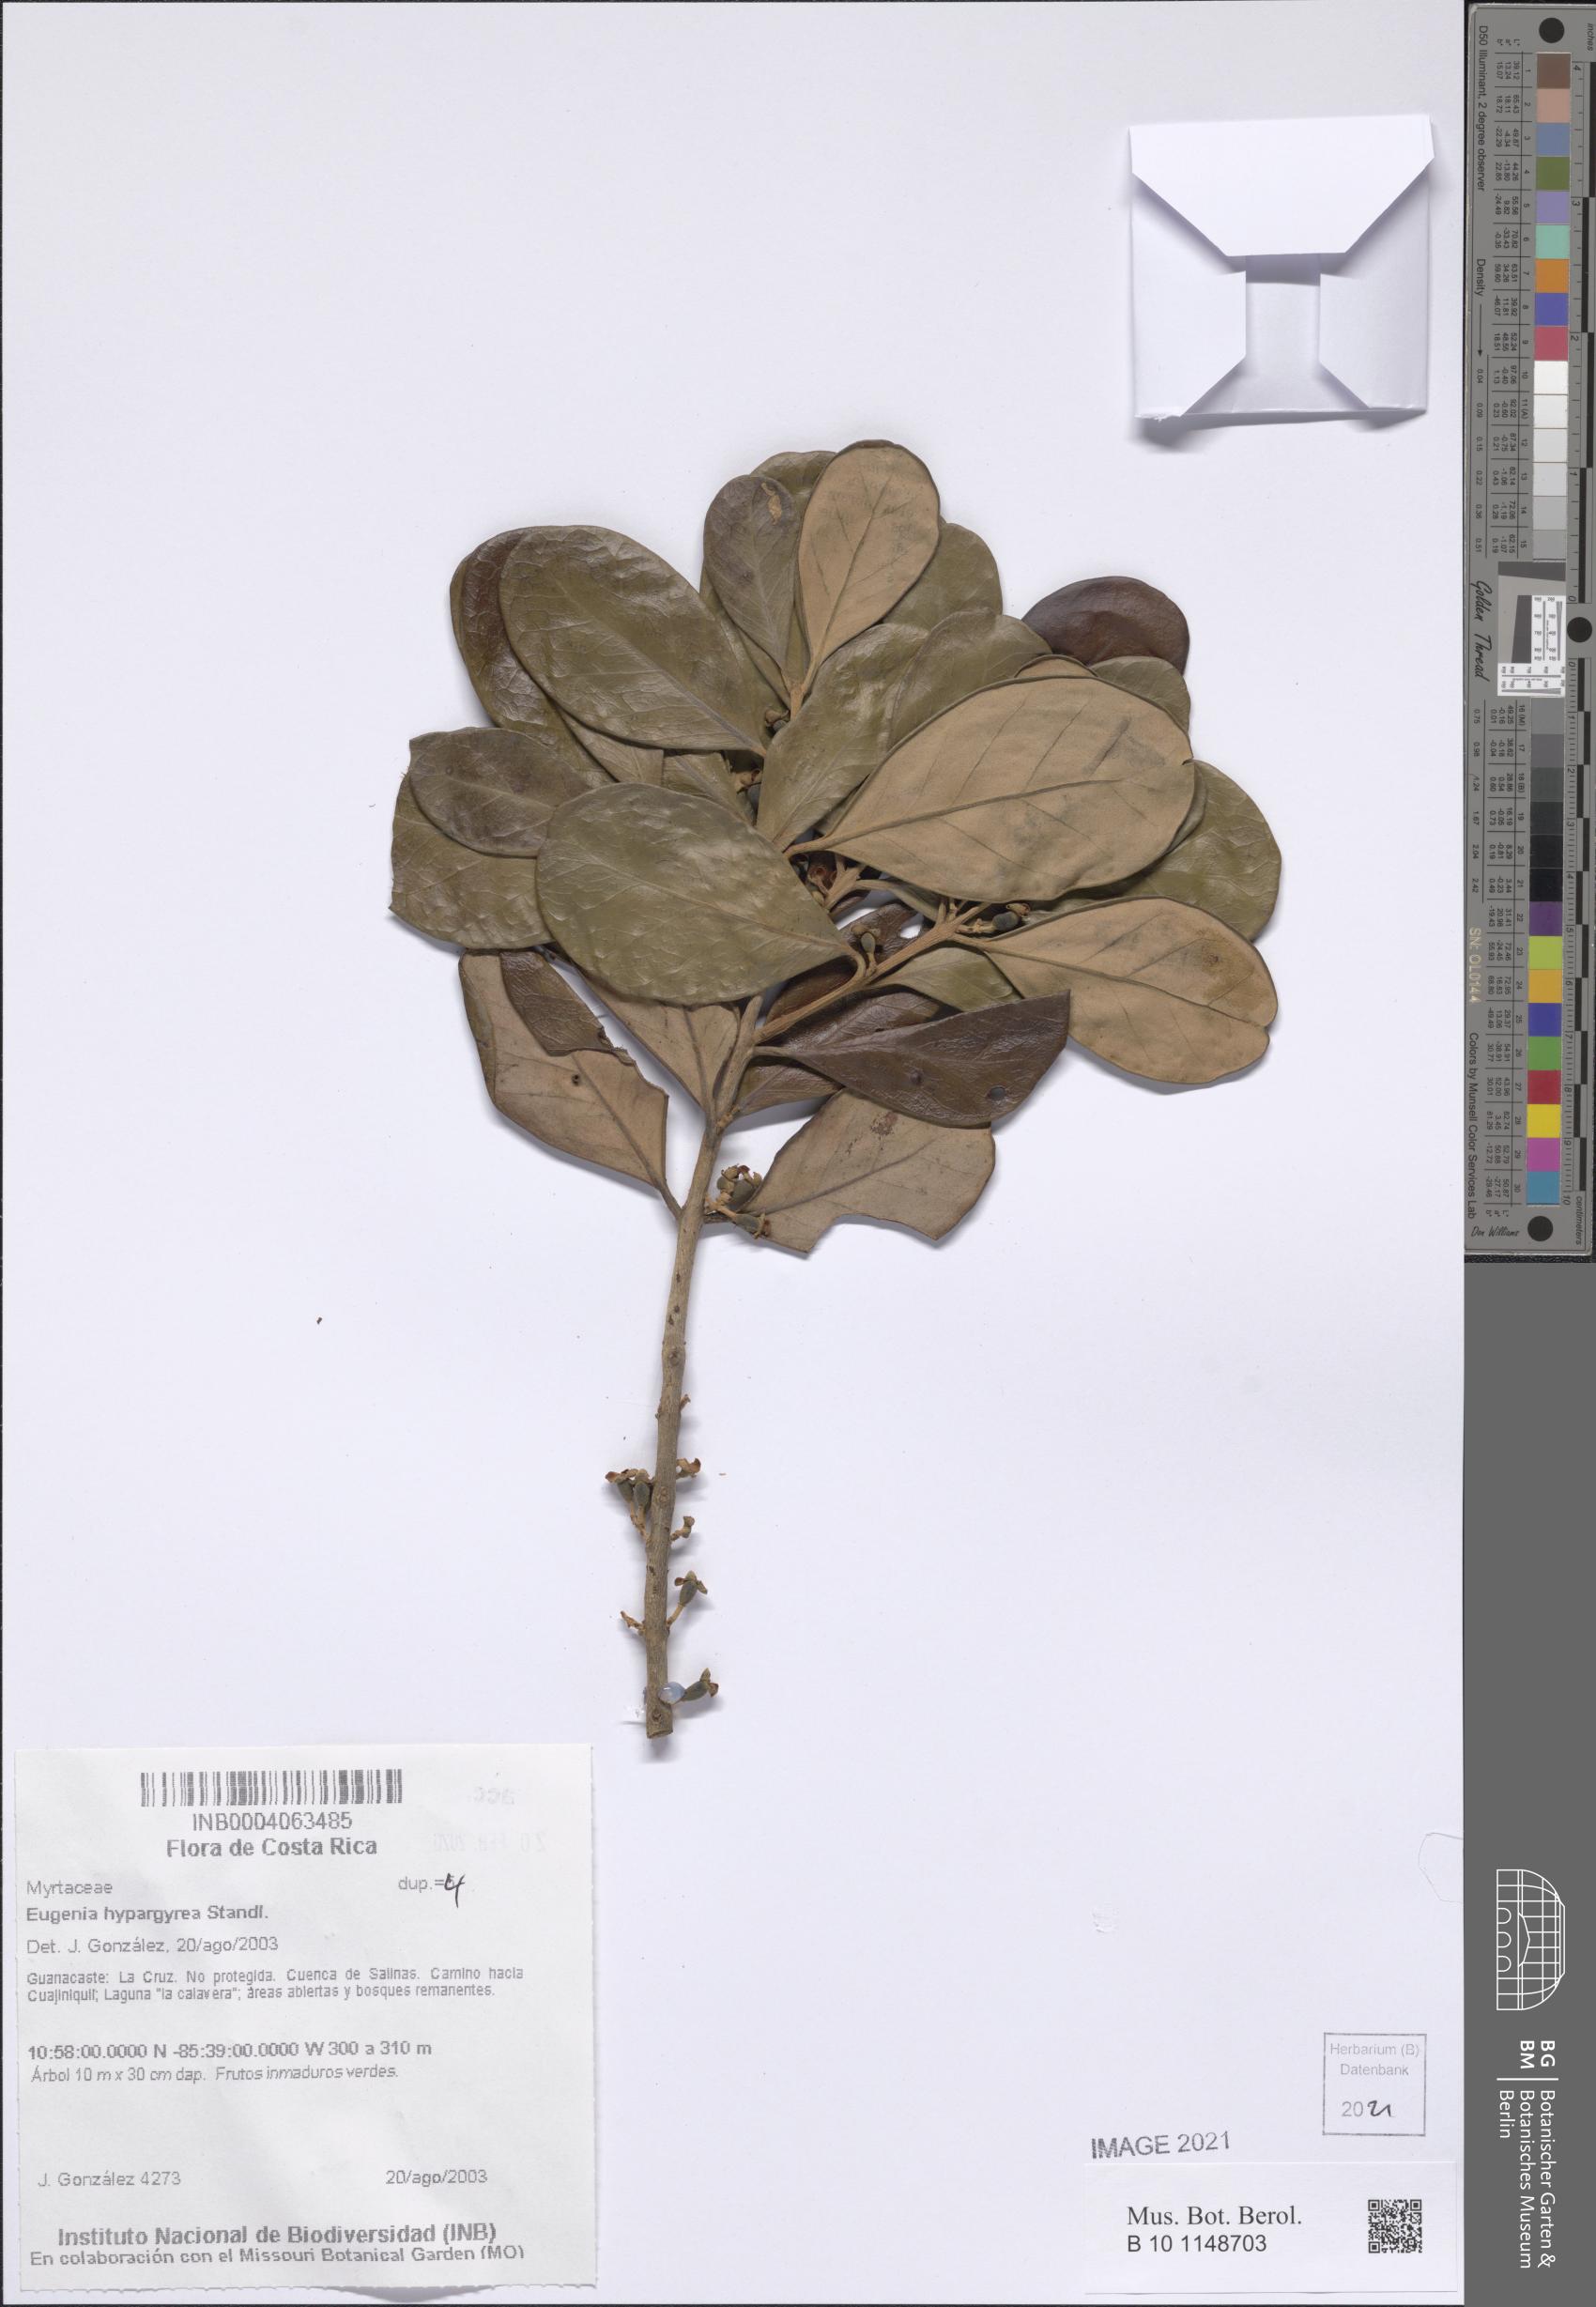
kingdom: Plantae
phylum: Tracheophyta
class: Magnoliopsida
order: Myrtales
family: Myrtaceae
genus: Eugenia
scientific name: Eugenia hypargyrea
